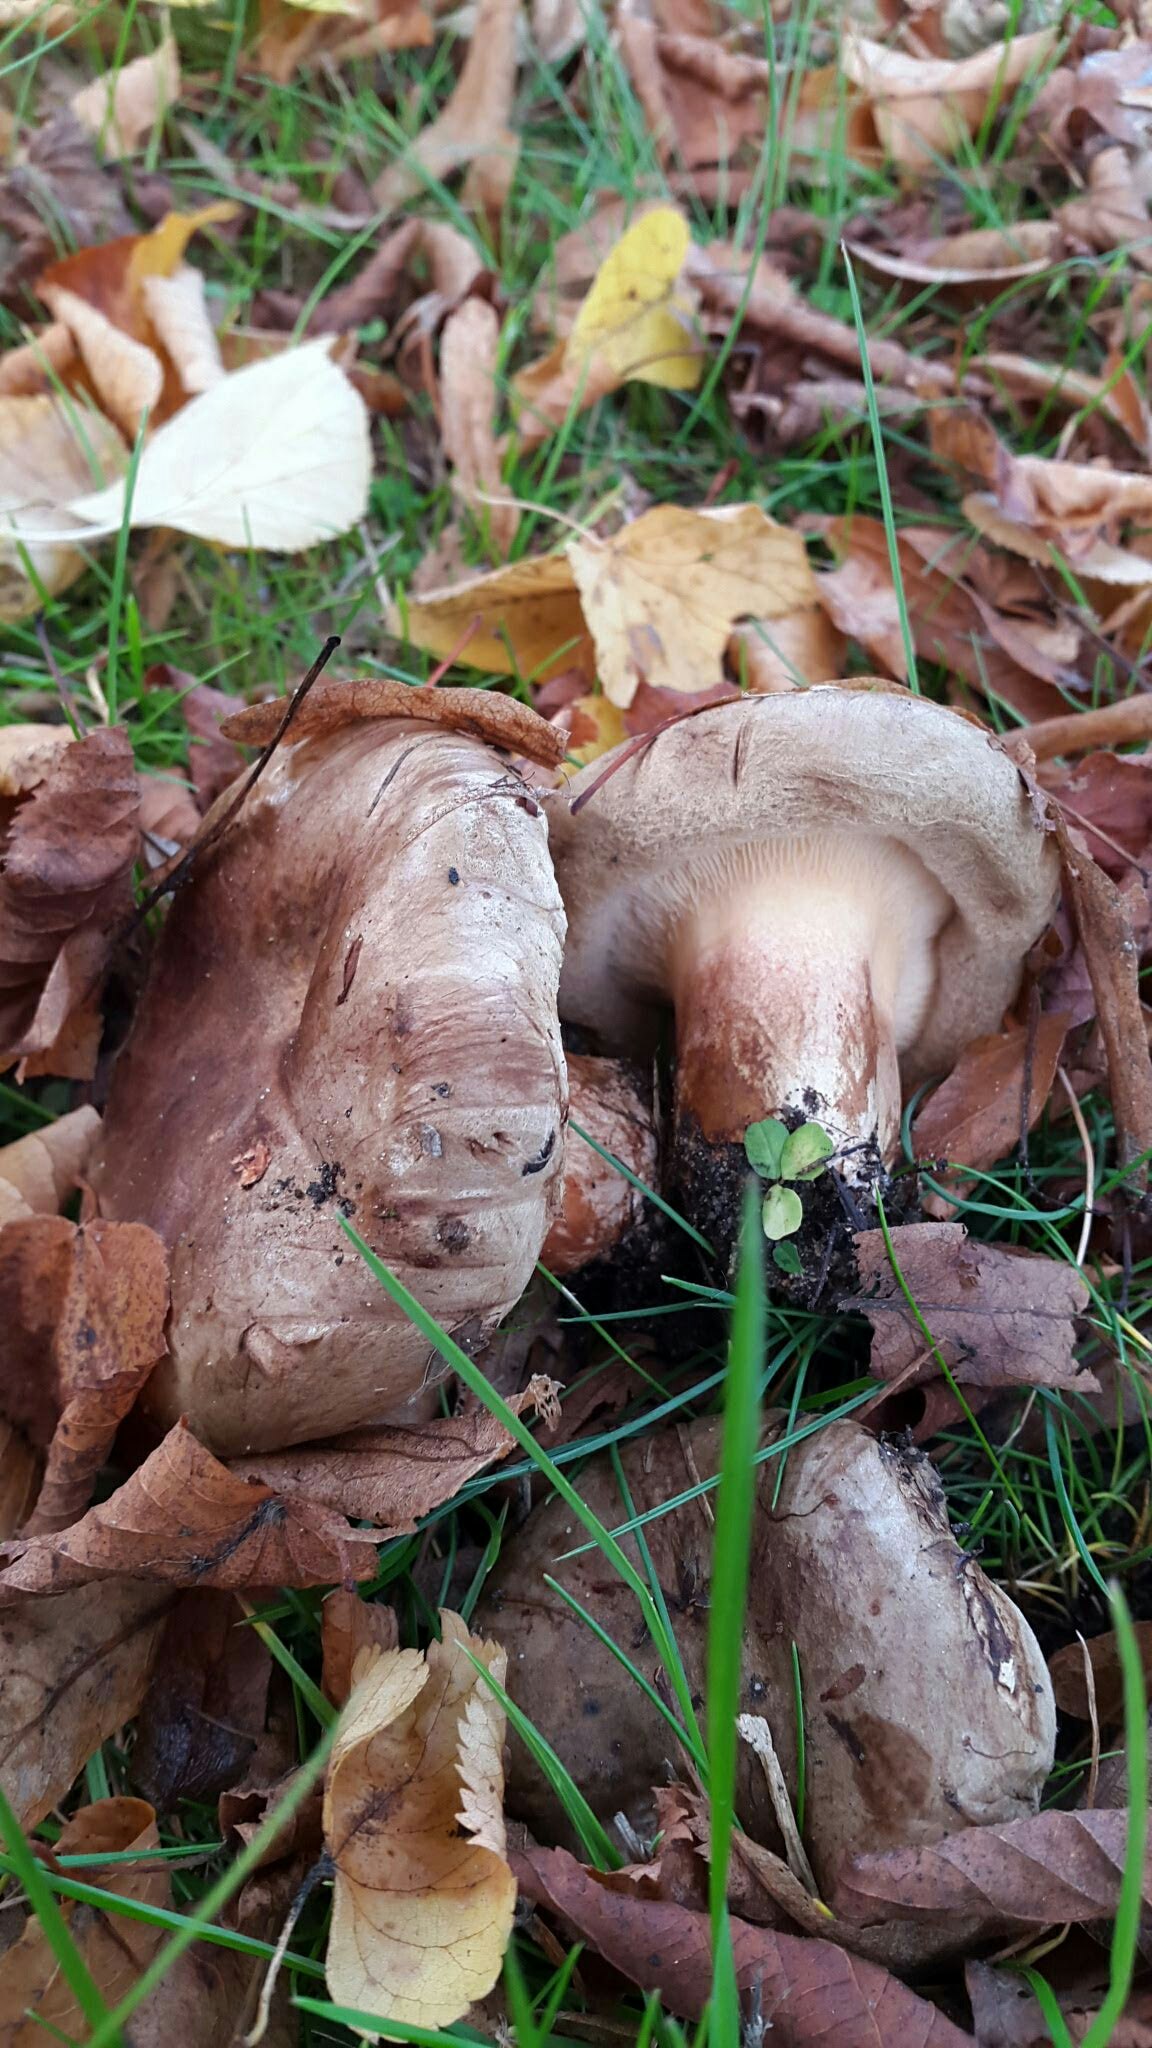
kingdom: Fungi
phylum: Basidiomycota
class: Agaricomycetes
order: Boletales
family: Paxillaceae
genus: Paxillus
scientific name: Paxillus
